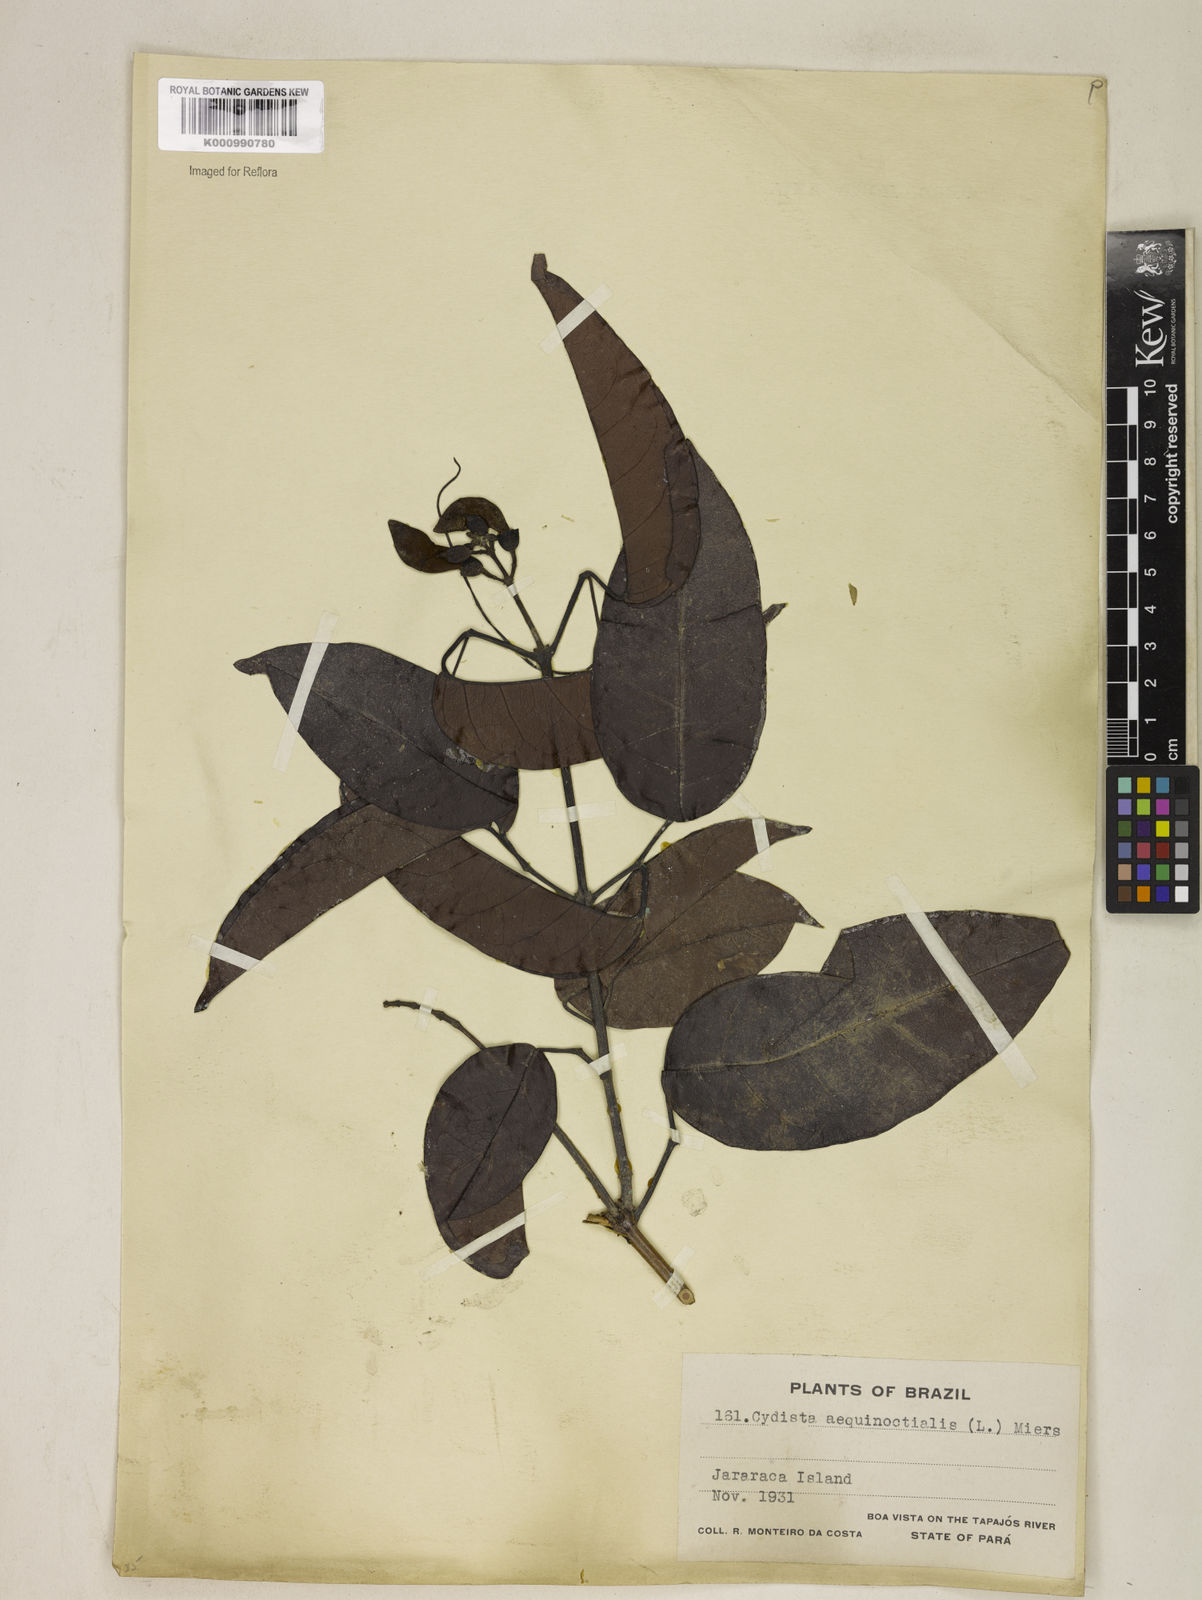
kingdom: Plantae
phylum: Tracheophyta
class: Magnoliopsida
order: Lamiales
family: Bignoniaceae
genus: Bignonia
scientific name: Bignonia aequinoctialis
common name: Garlicvine
